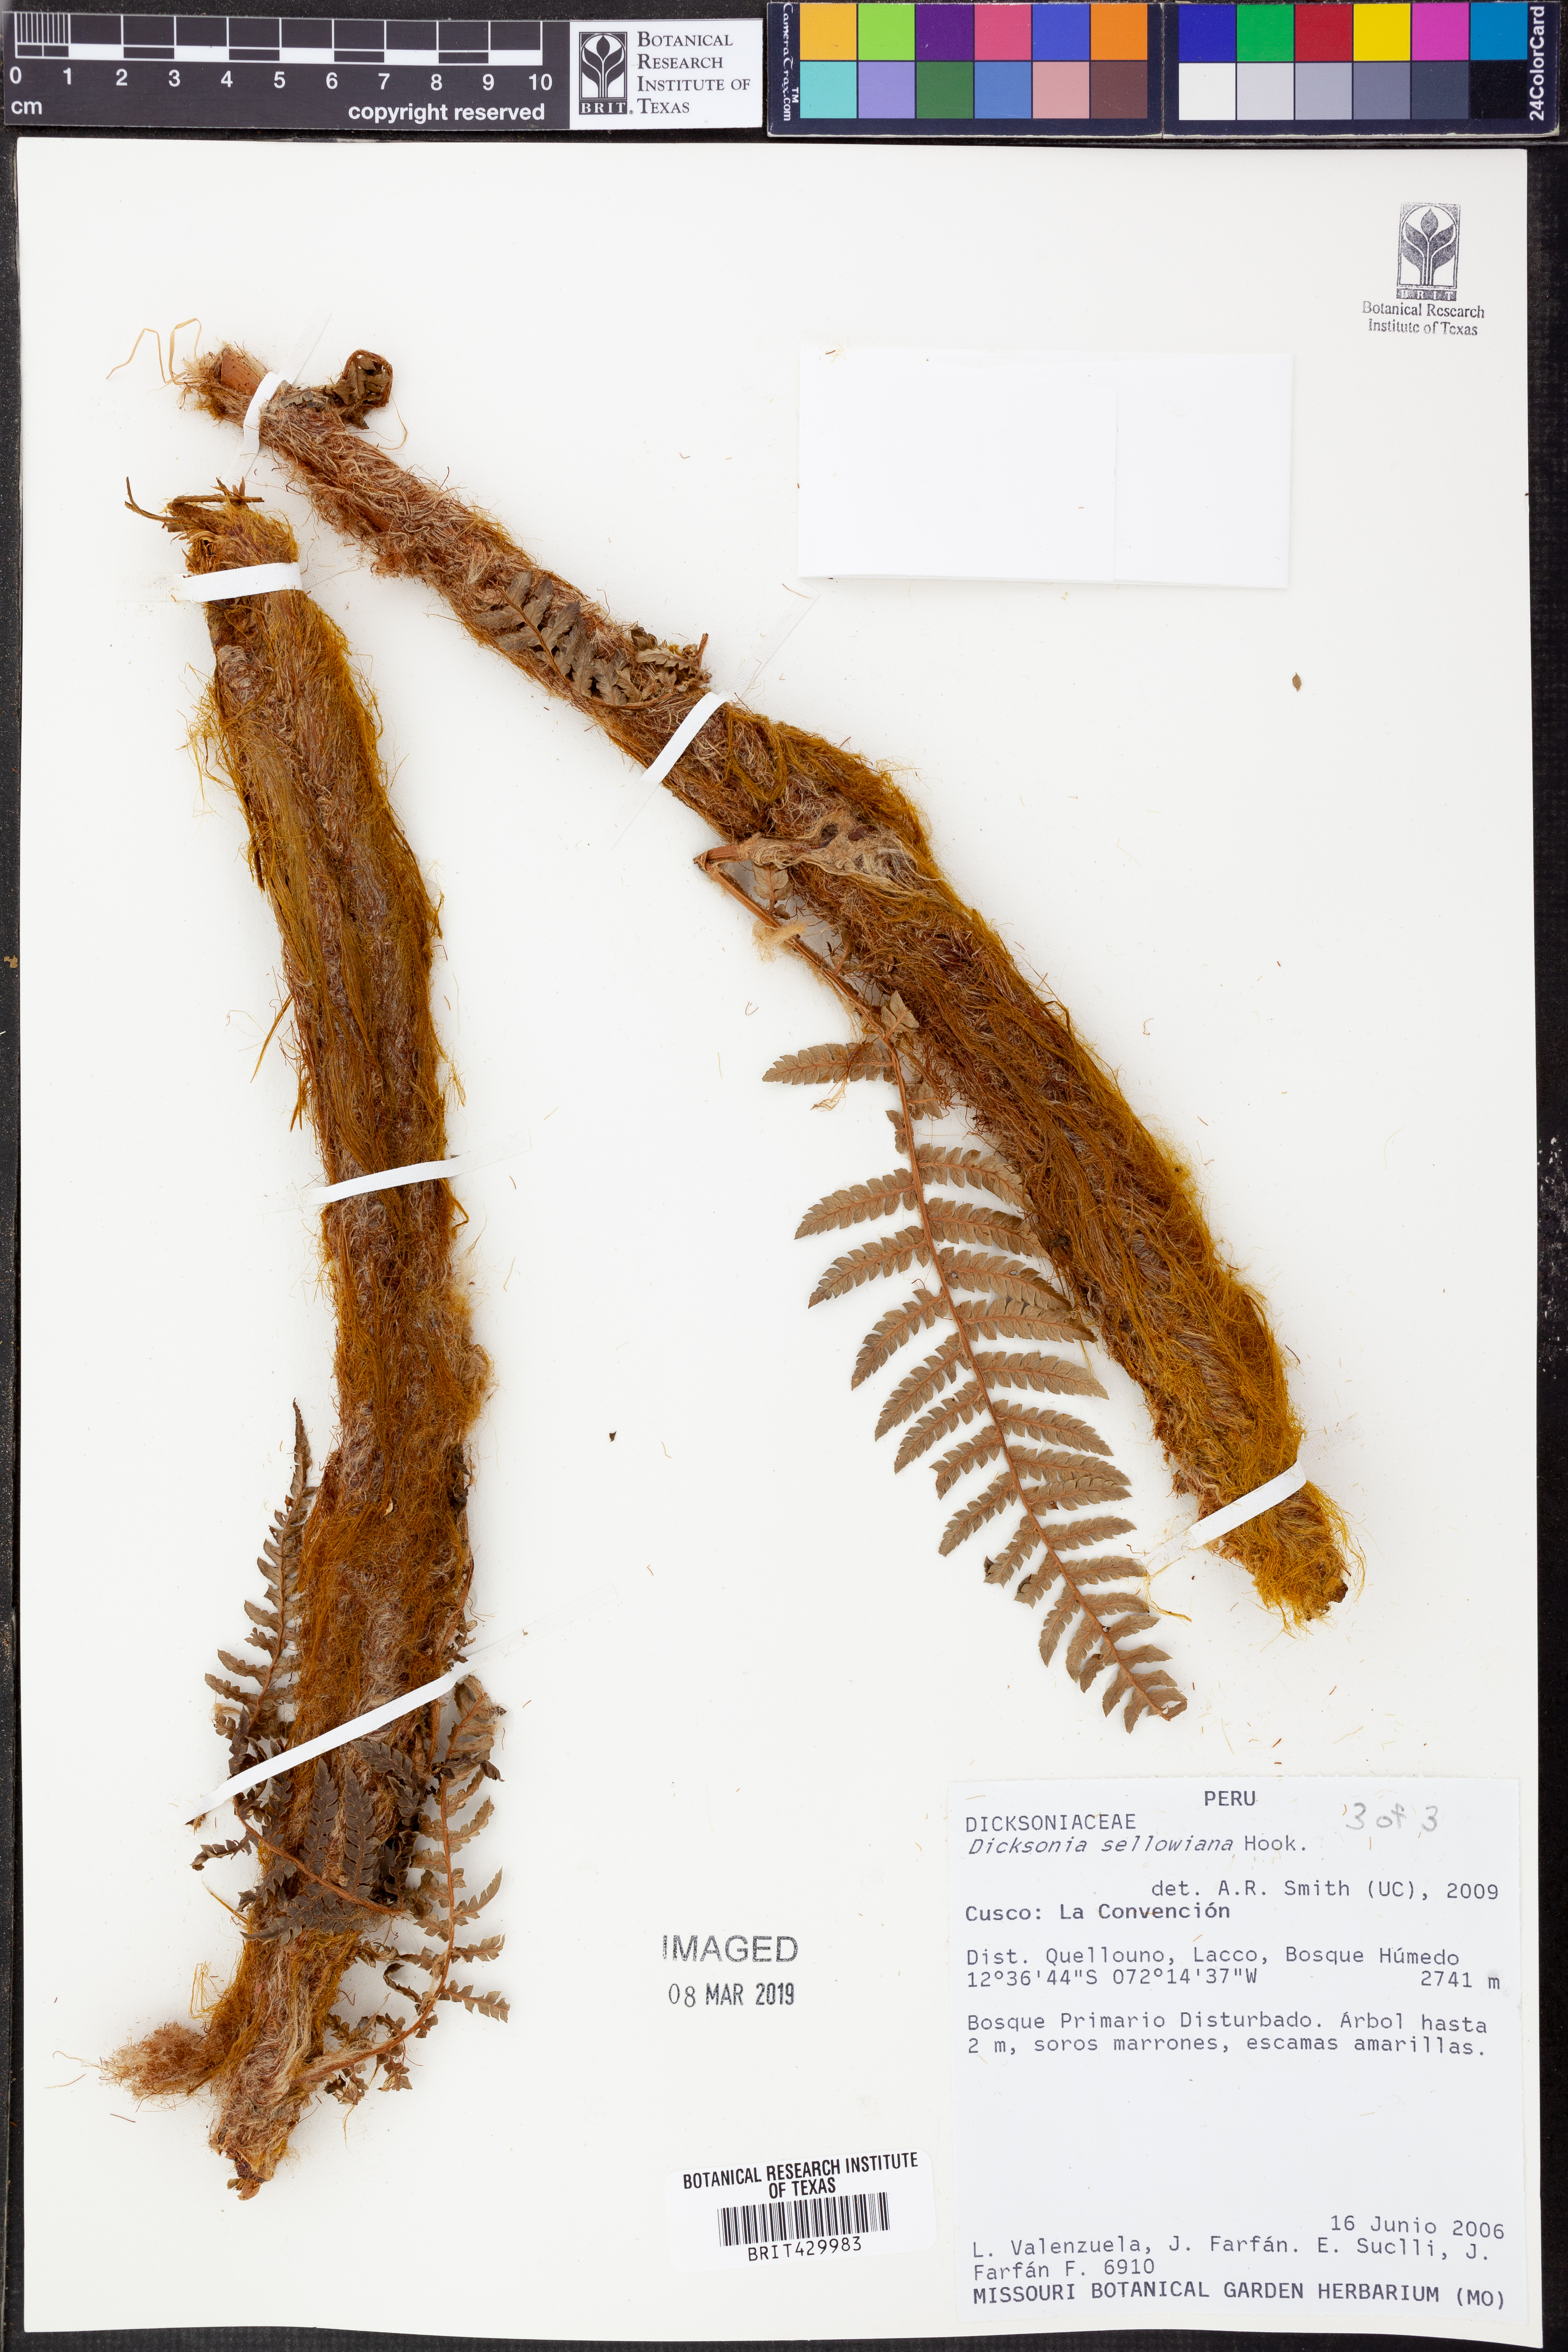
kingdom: Plantae
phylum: Tracheophyta
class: Polypodiopsida
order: Cyatheales
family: Dicksoniaceae
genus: Dicksonia
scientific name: Dicksonia sellowiana
